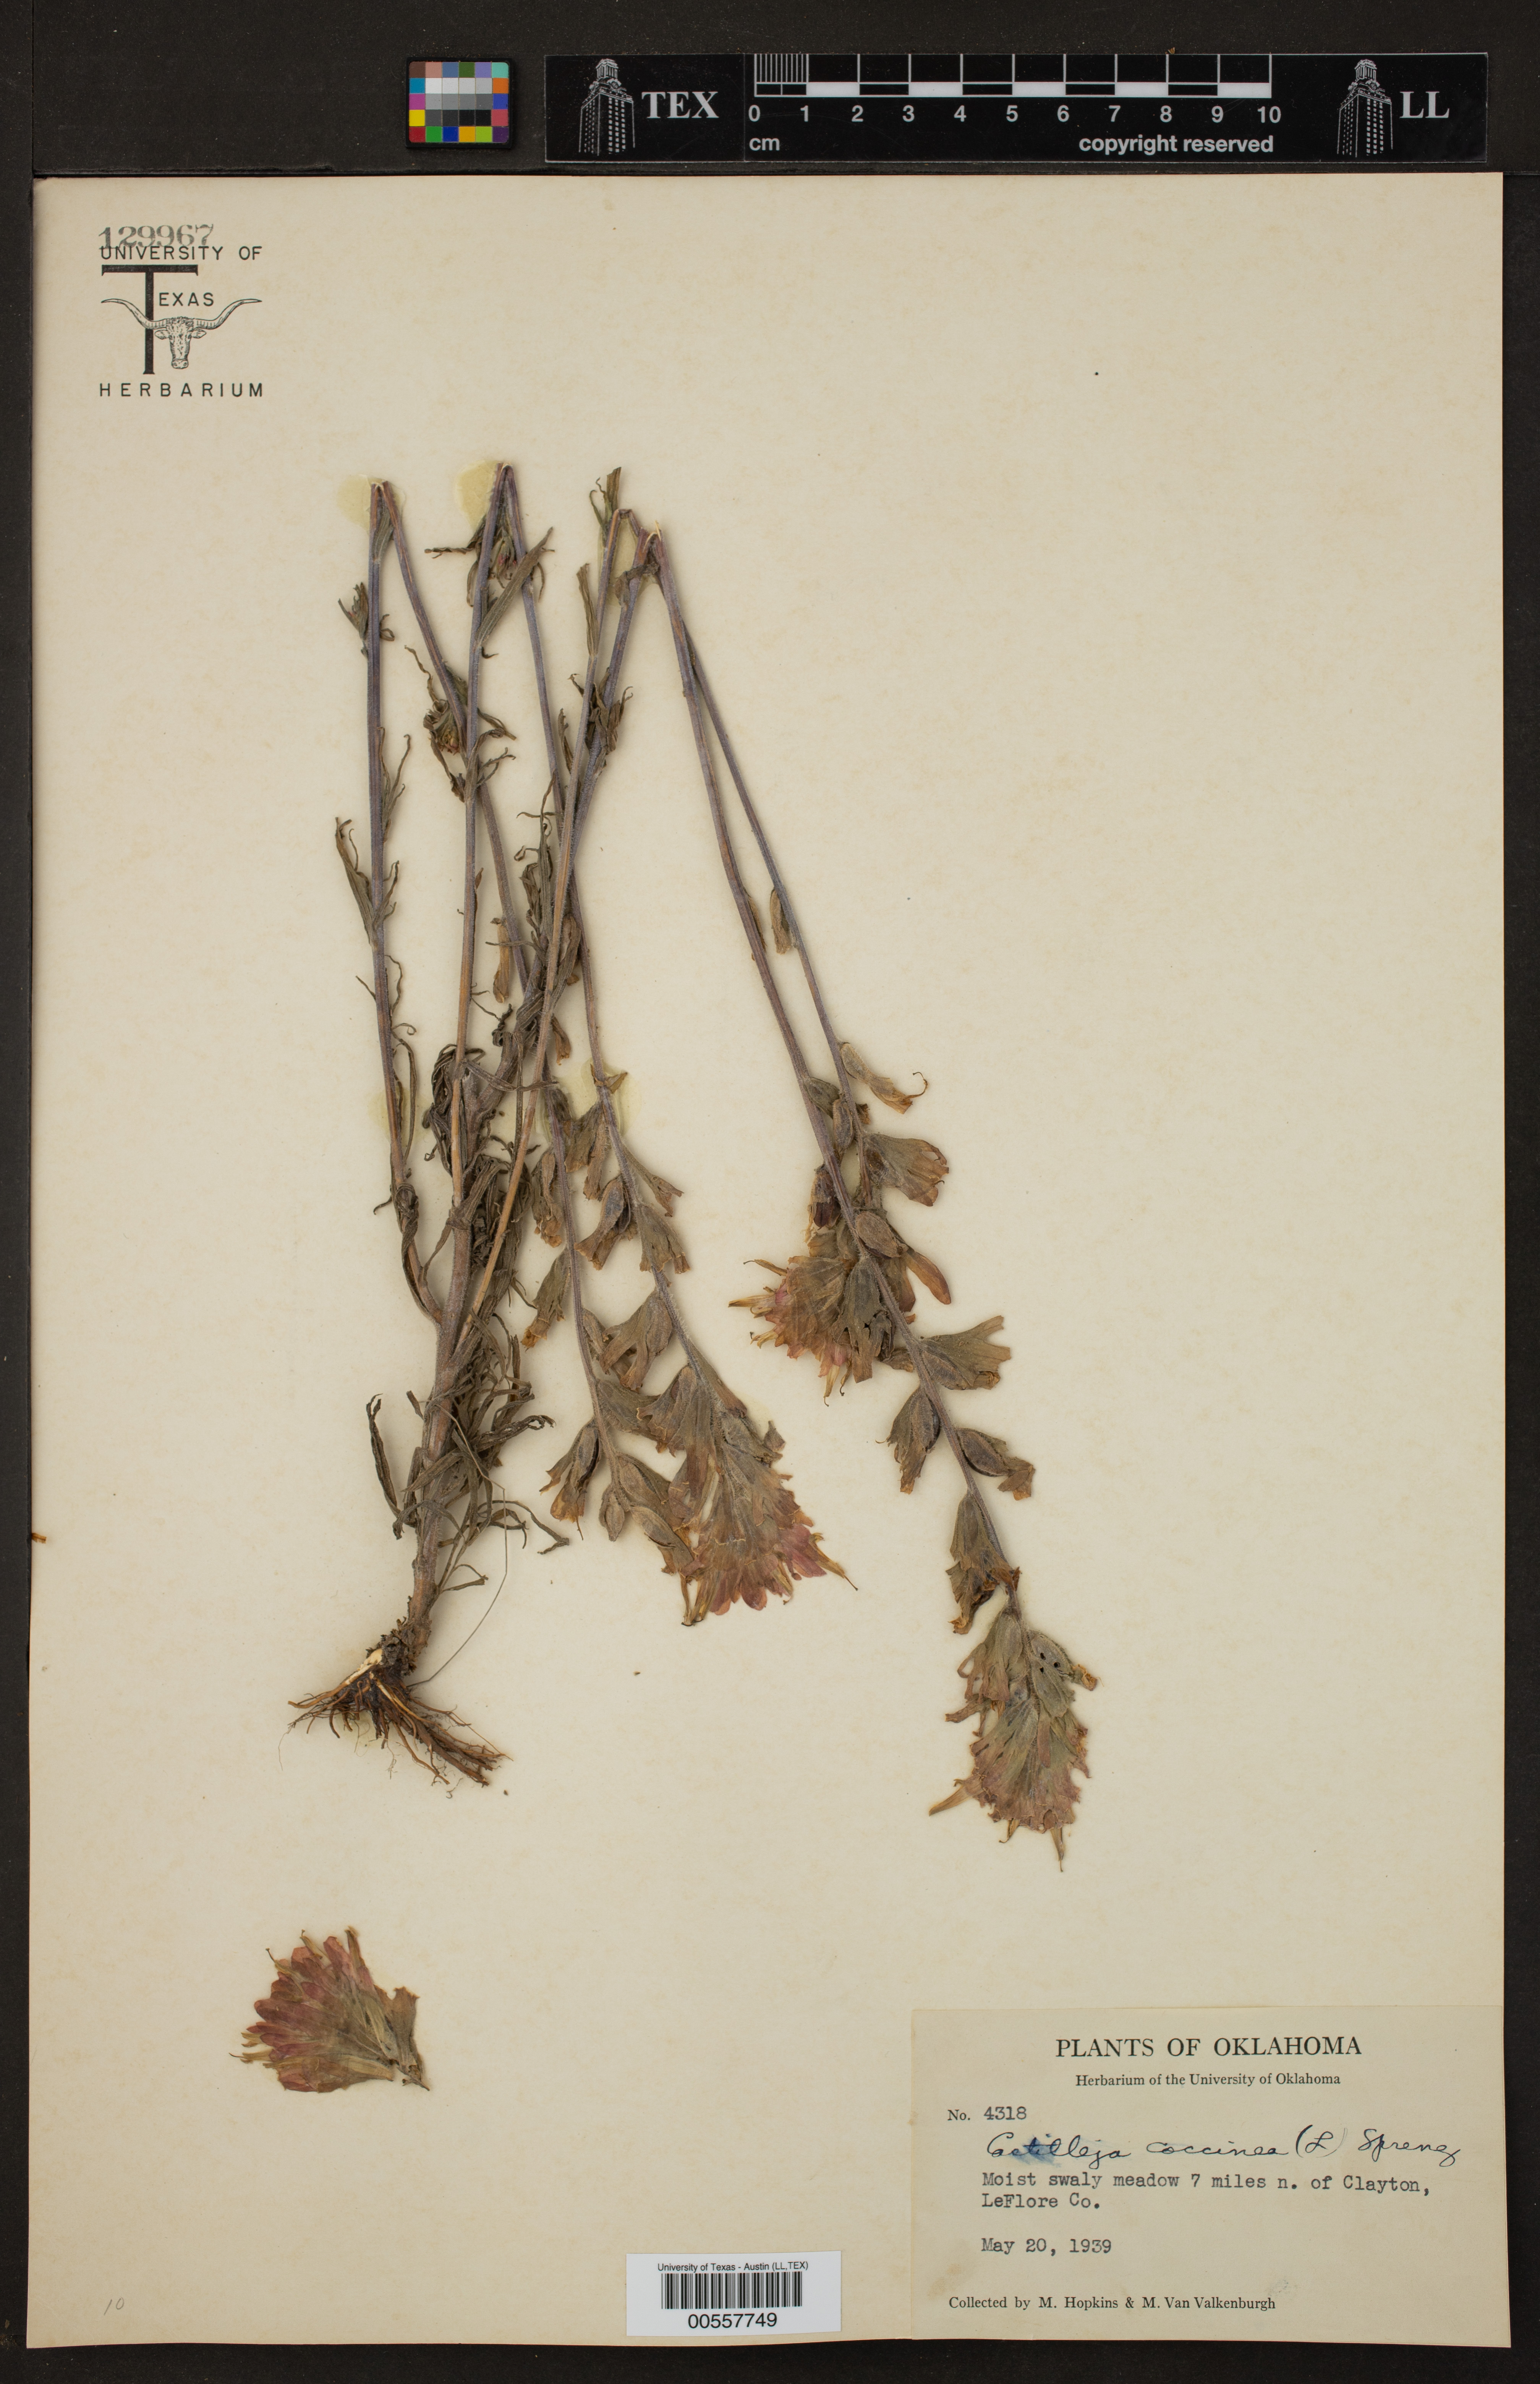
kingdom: Plantae
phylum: Tracheophyta
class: Magnoliopsida
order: Lamiales
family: Orobanchaceae
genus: Castilleja
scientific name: Castilleja coccinea
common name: Scarlet paintbrush
